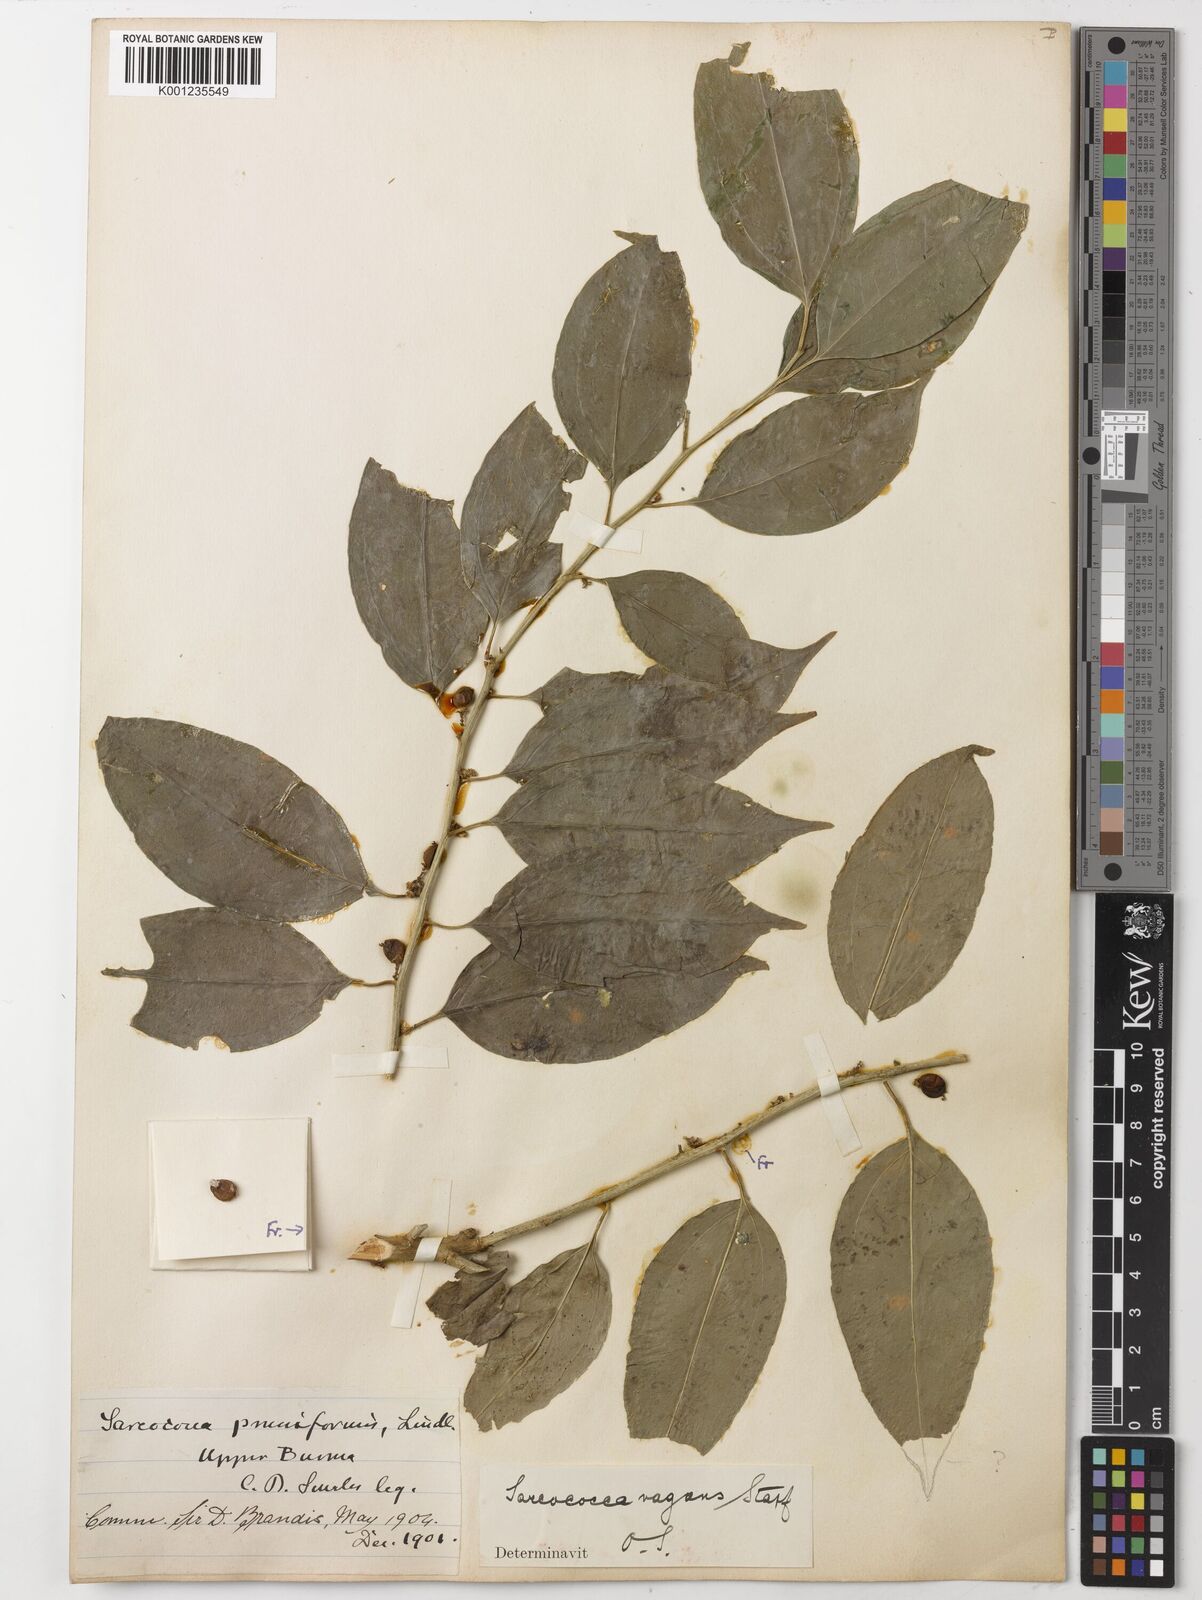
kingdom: Plantae
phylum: Tracheophyta
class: Magnoliopsida
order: Buxales
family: Buxaceae
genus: Sarcococca
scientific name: Sarcococca coriacea
